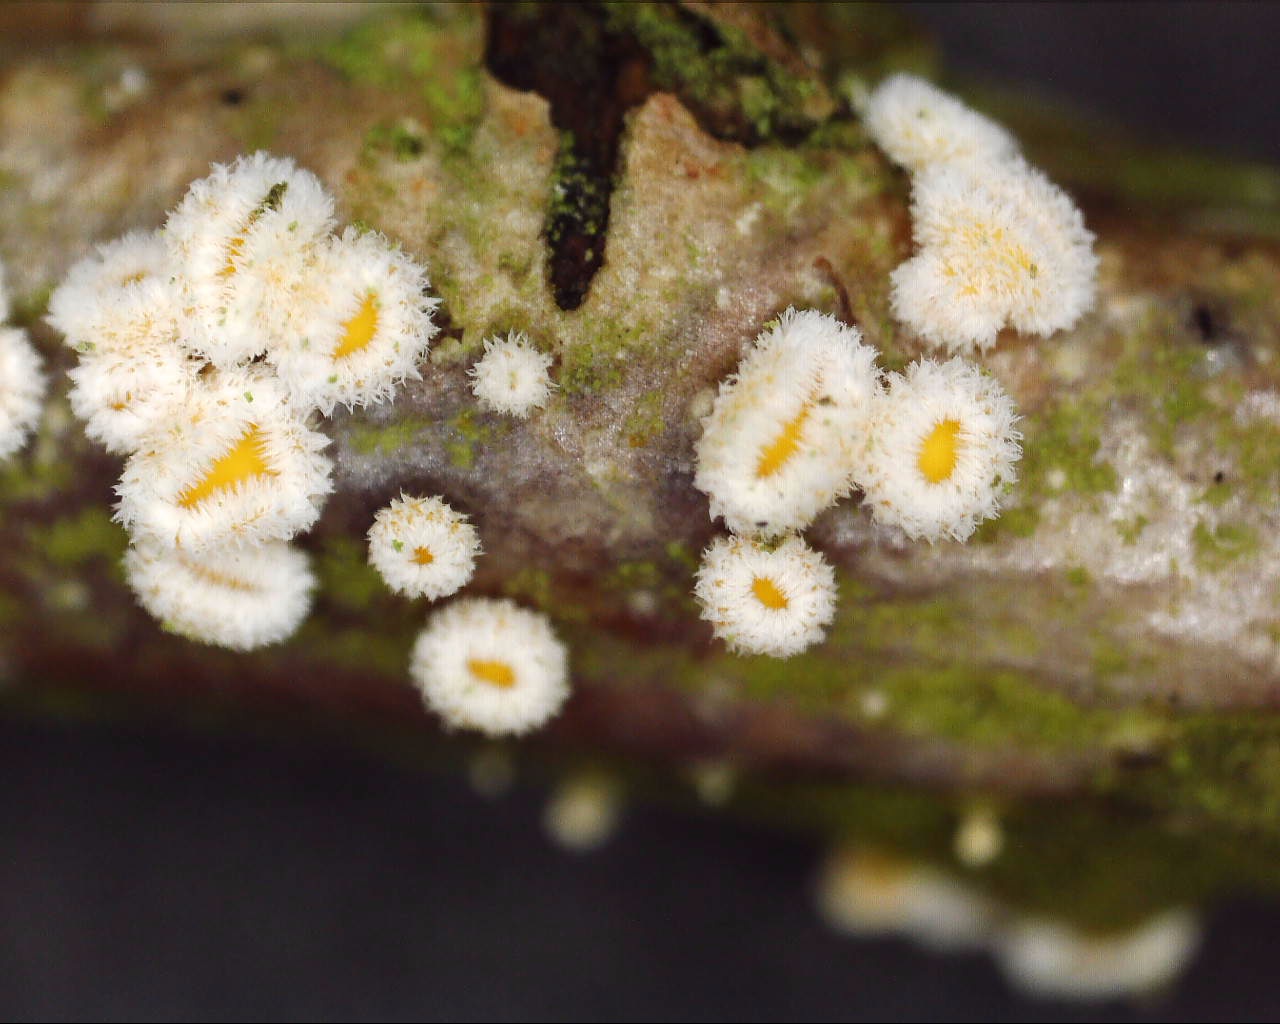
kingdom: Fungi
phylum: Ascomycota
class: Leotiomycetes
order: Helotiales
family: Lachnaceae
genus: Capitotricha
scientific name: Capitotricha bicolor
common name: prægtig frynseskive
